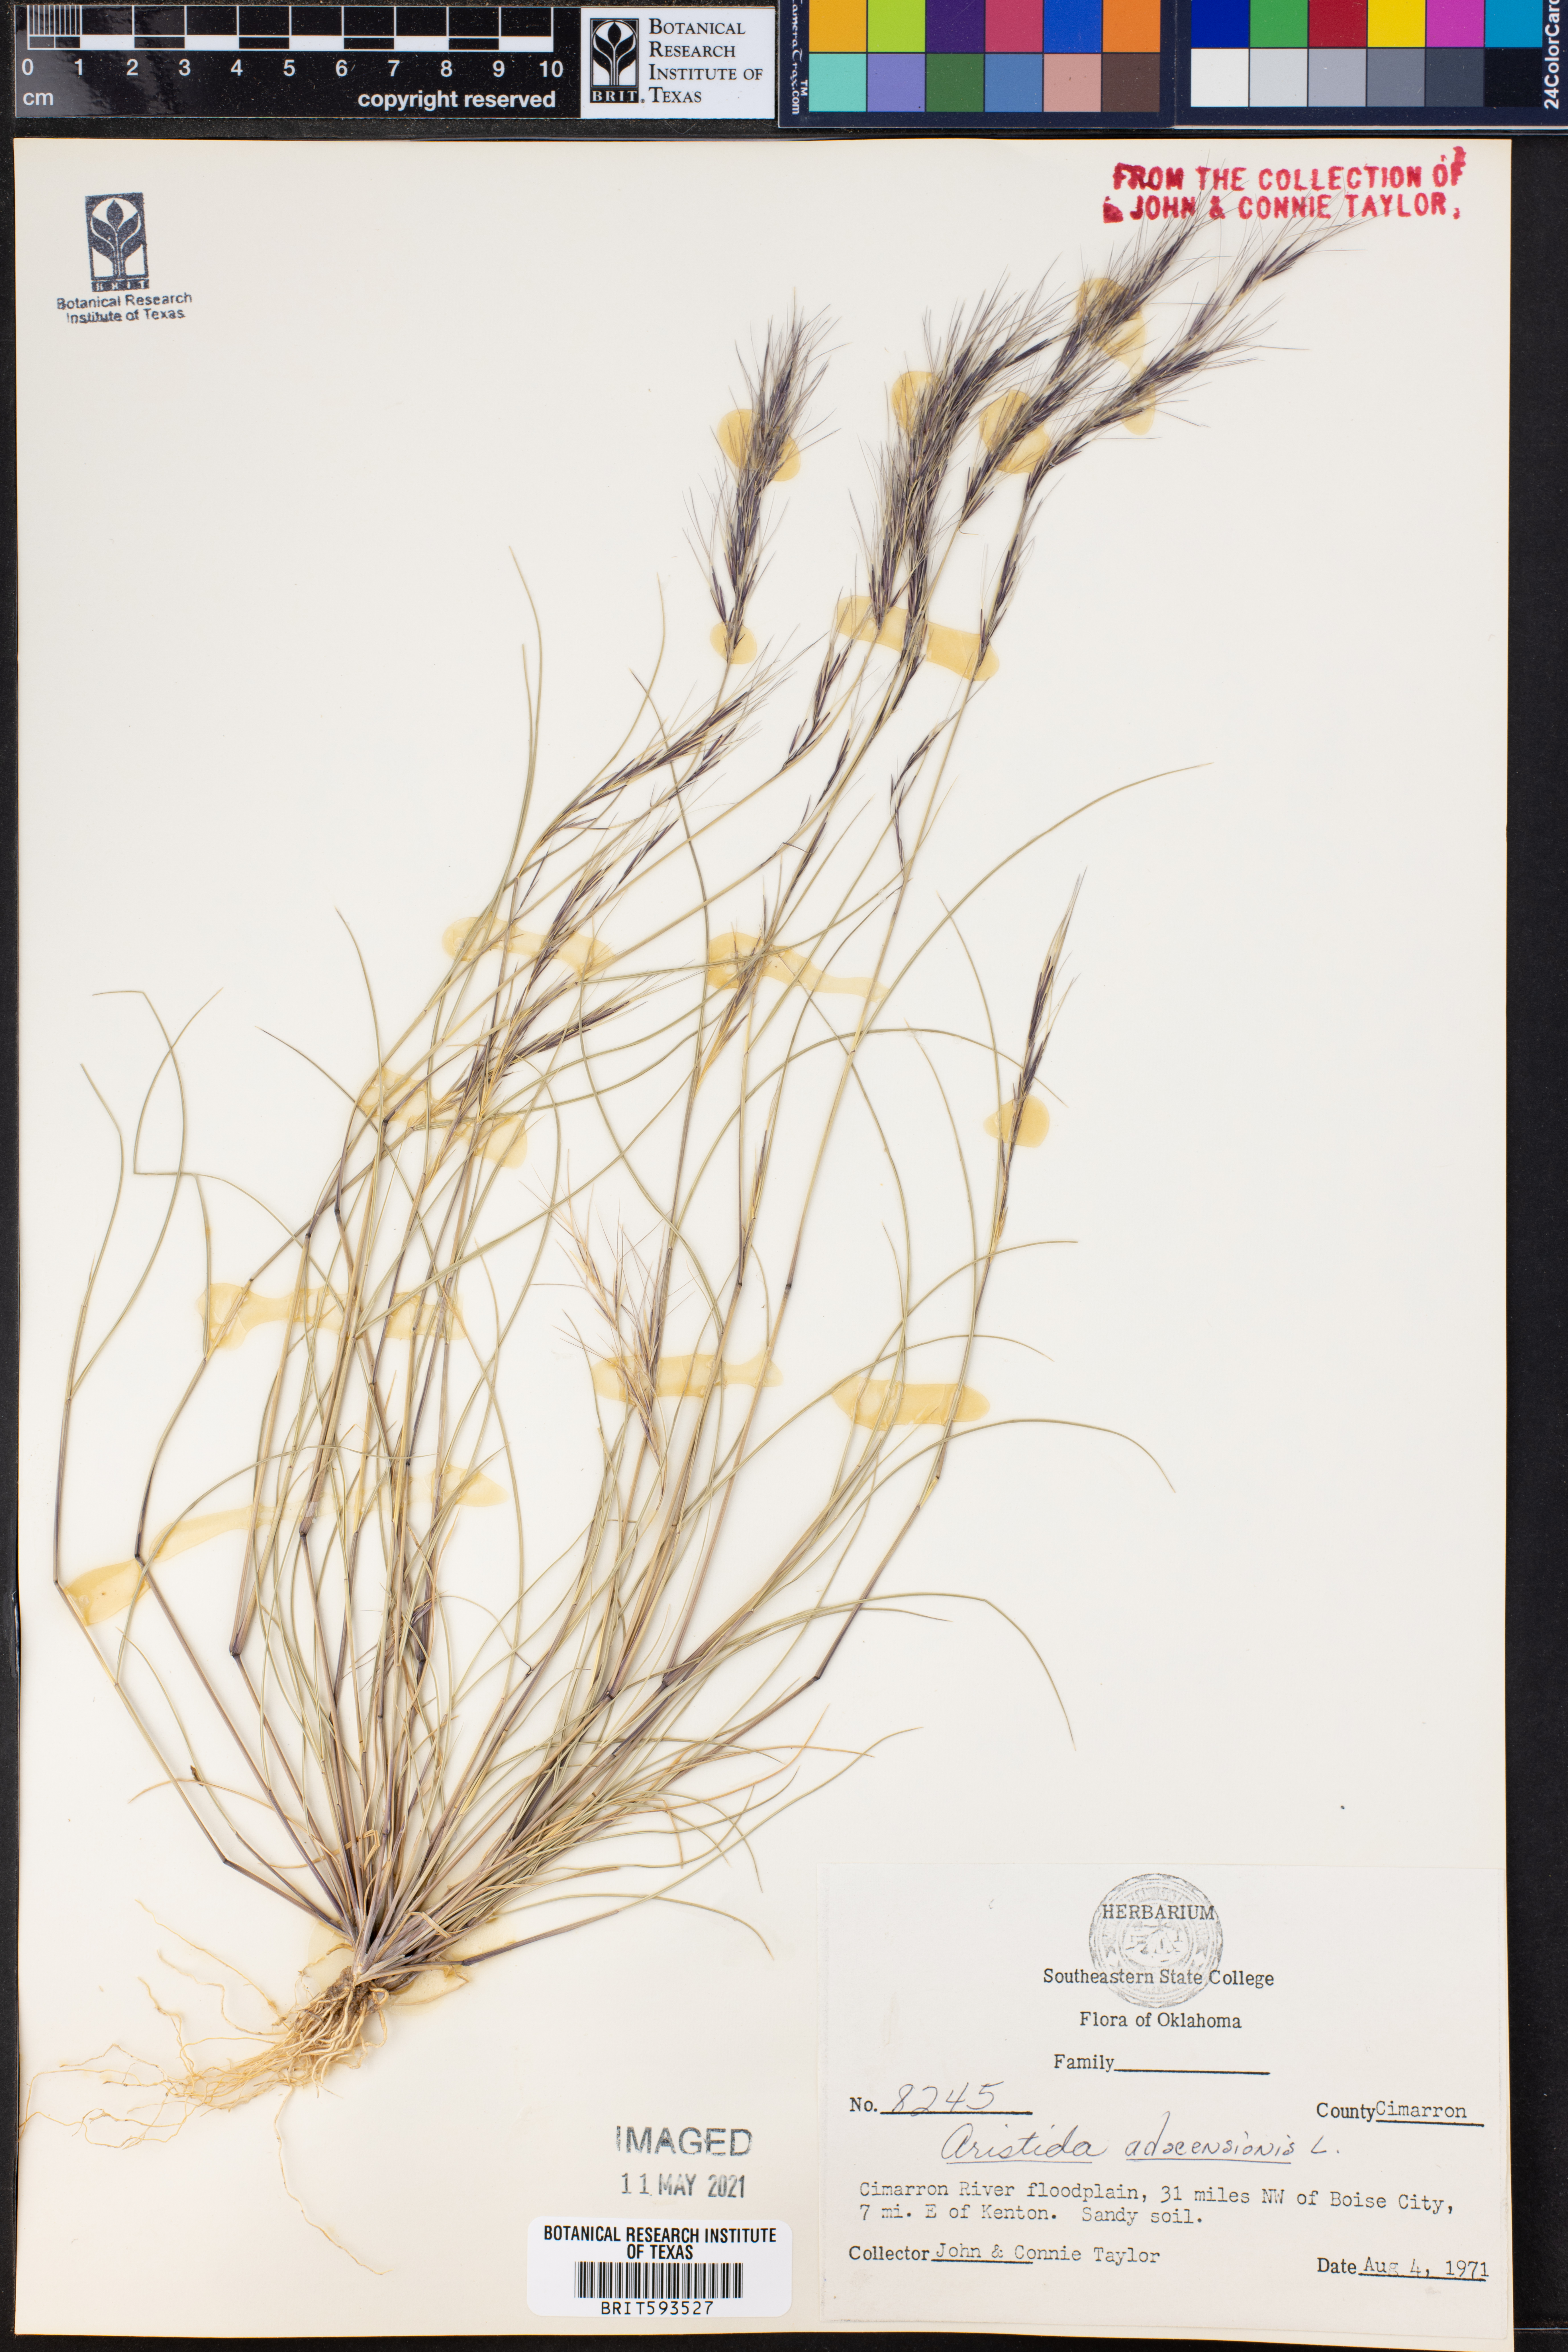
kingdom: Plantae
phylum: Tracheophyta
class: Liliopsida
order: Poales
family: Poaceae
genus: Aristida
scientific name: Aristida adscensionis
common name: Sixweeks threeawn
